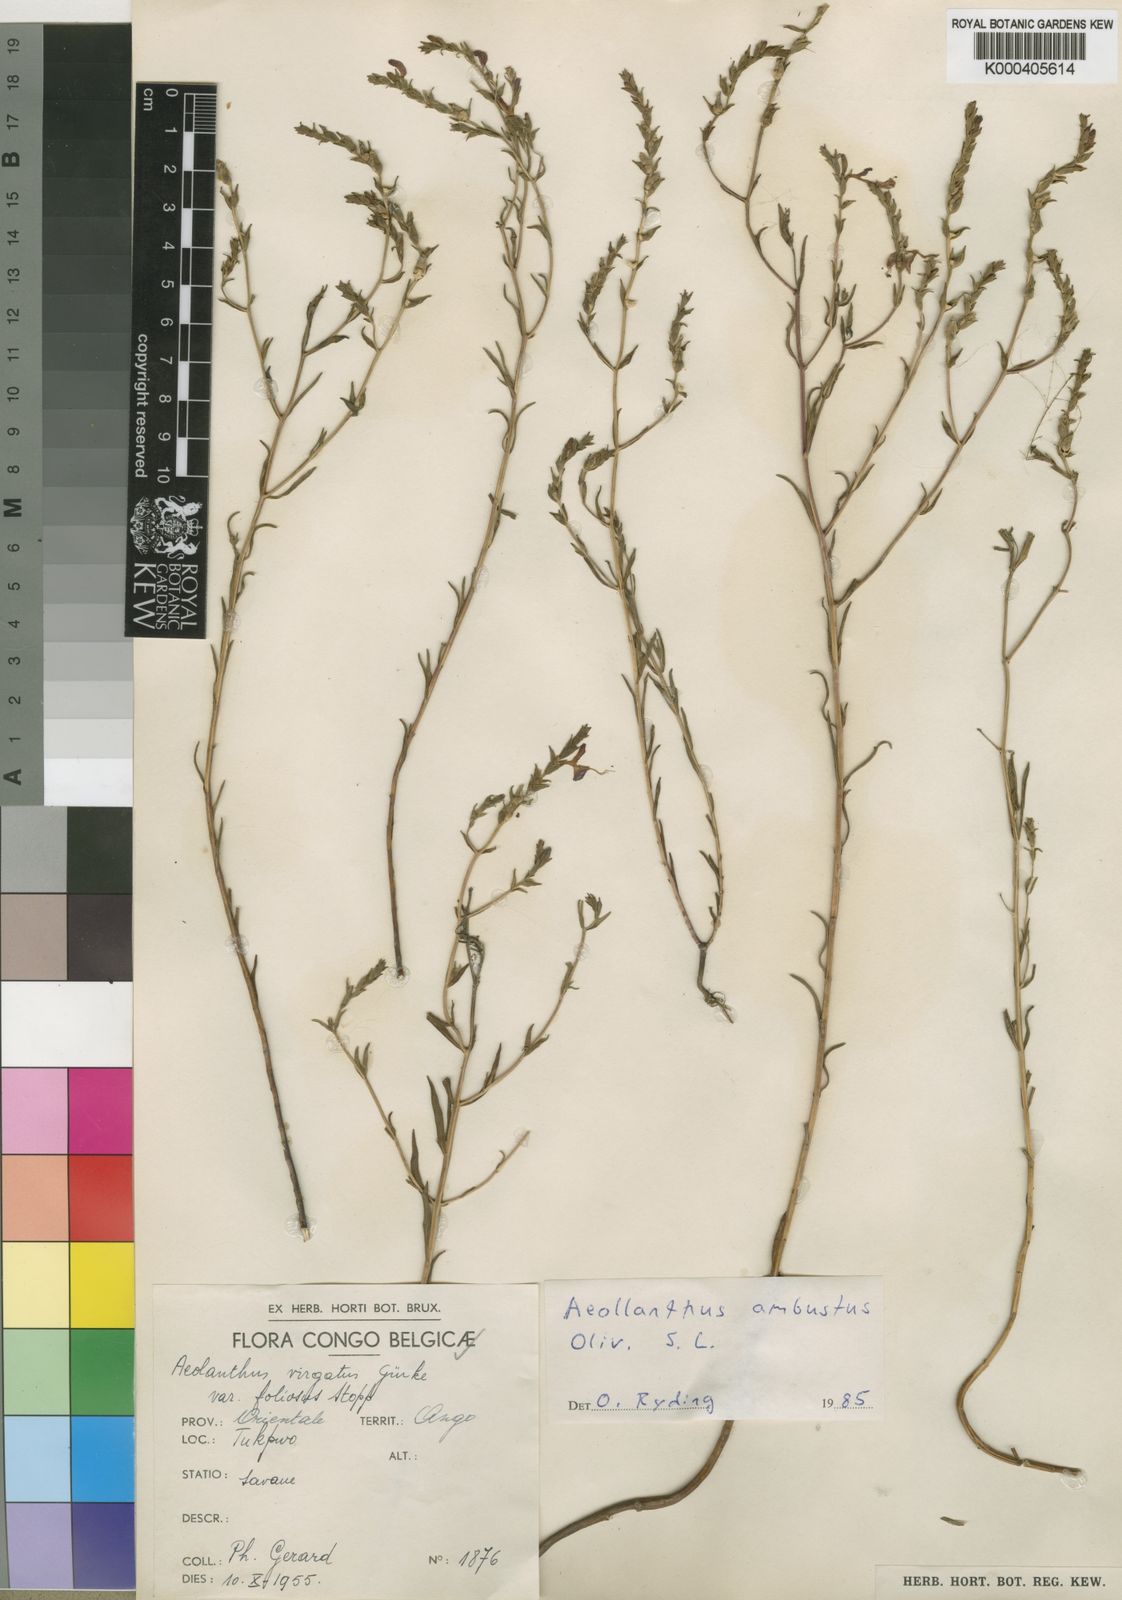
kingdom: Plantae
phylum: Tracheophyta
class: Magnoliopsida
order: Lamiales
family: Lamiaceae
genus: Aeollanthus
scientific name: Aeollanthus ambustus
